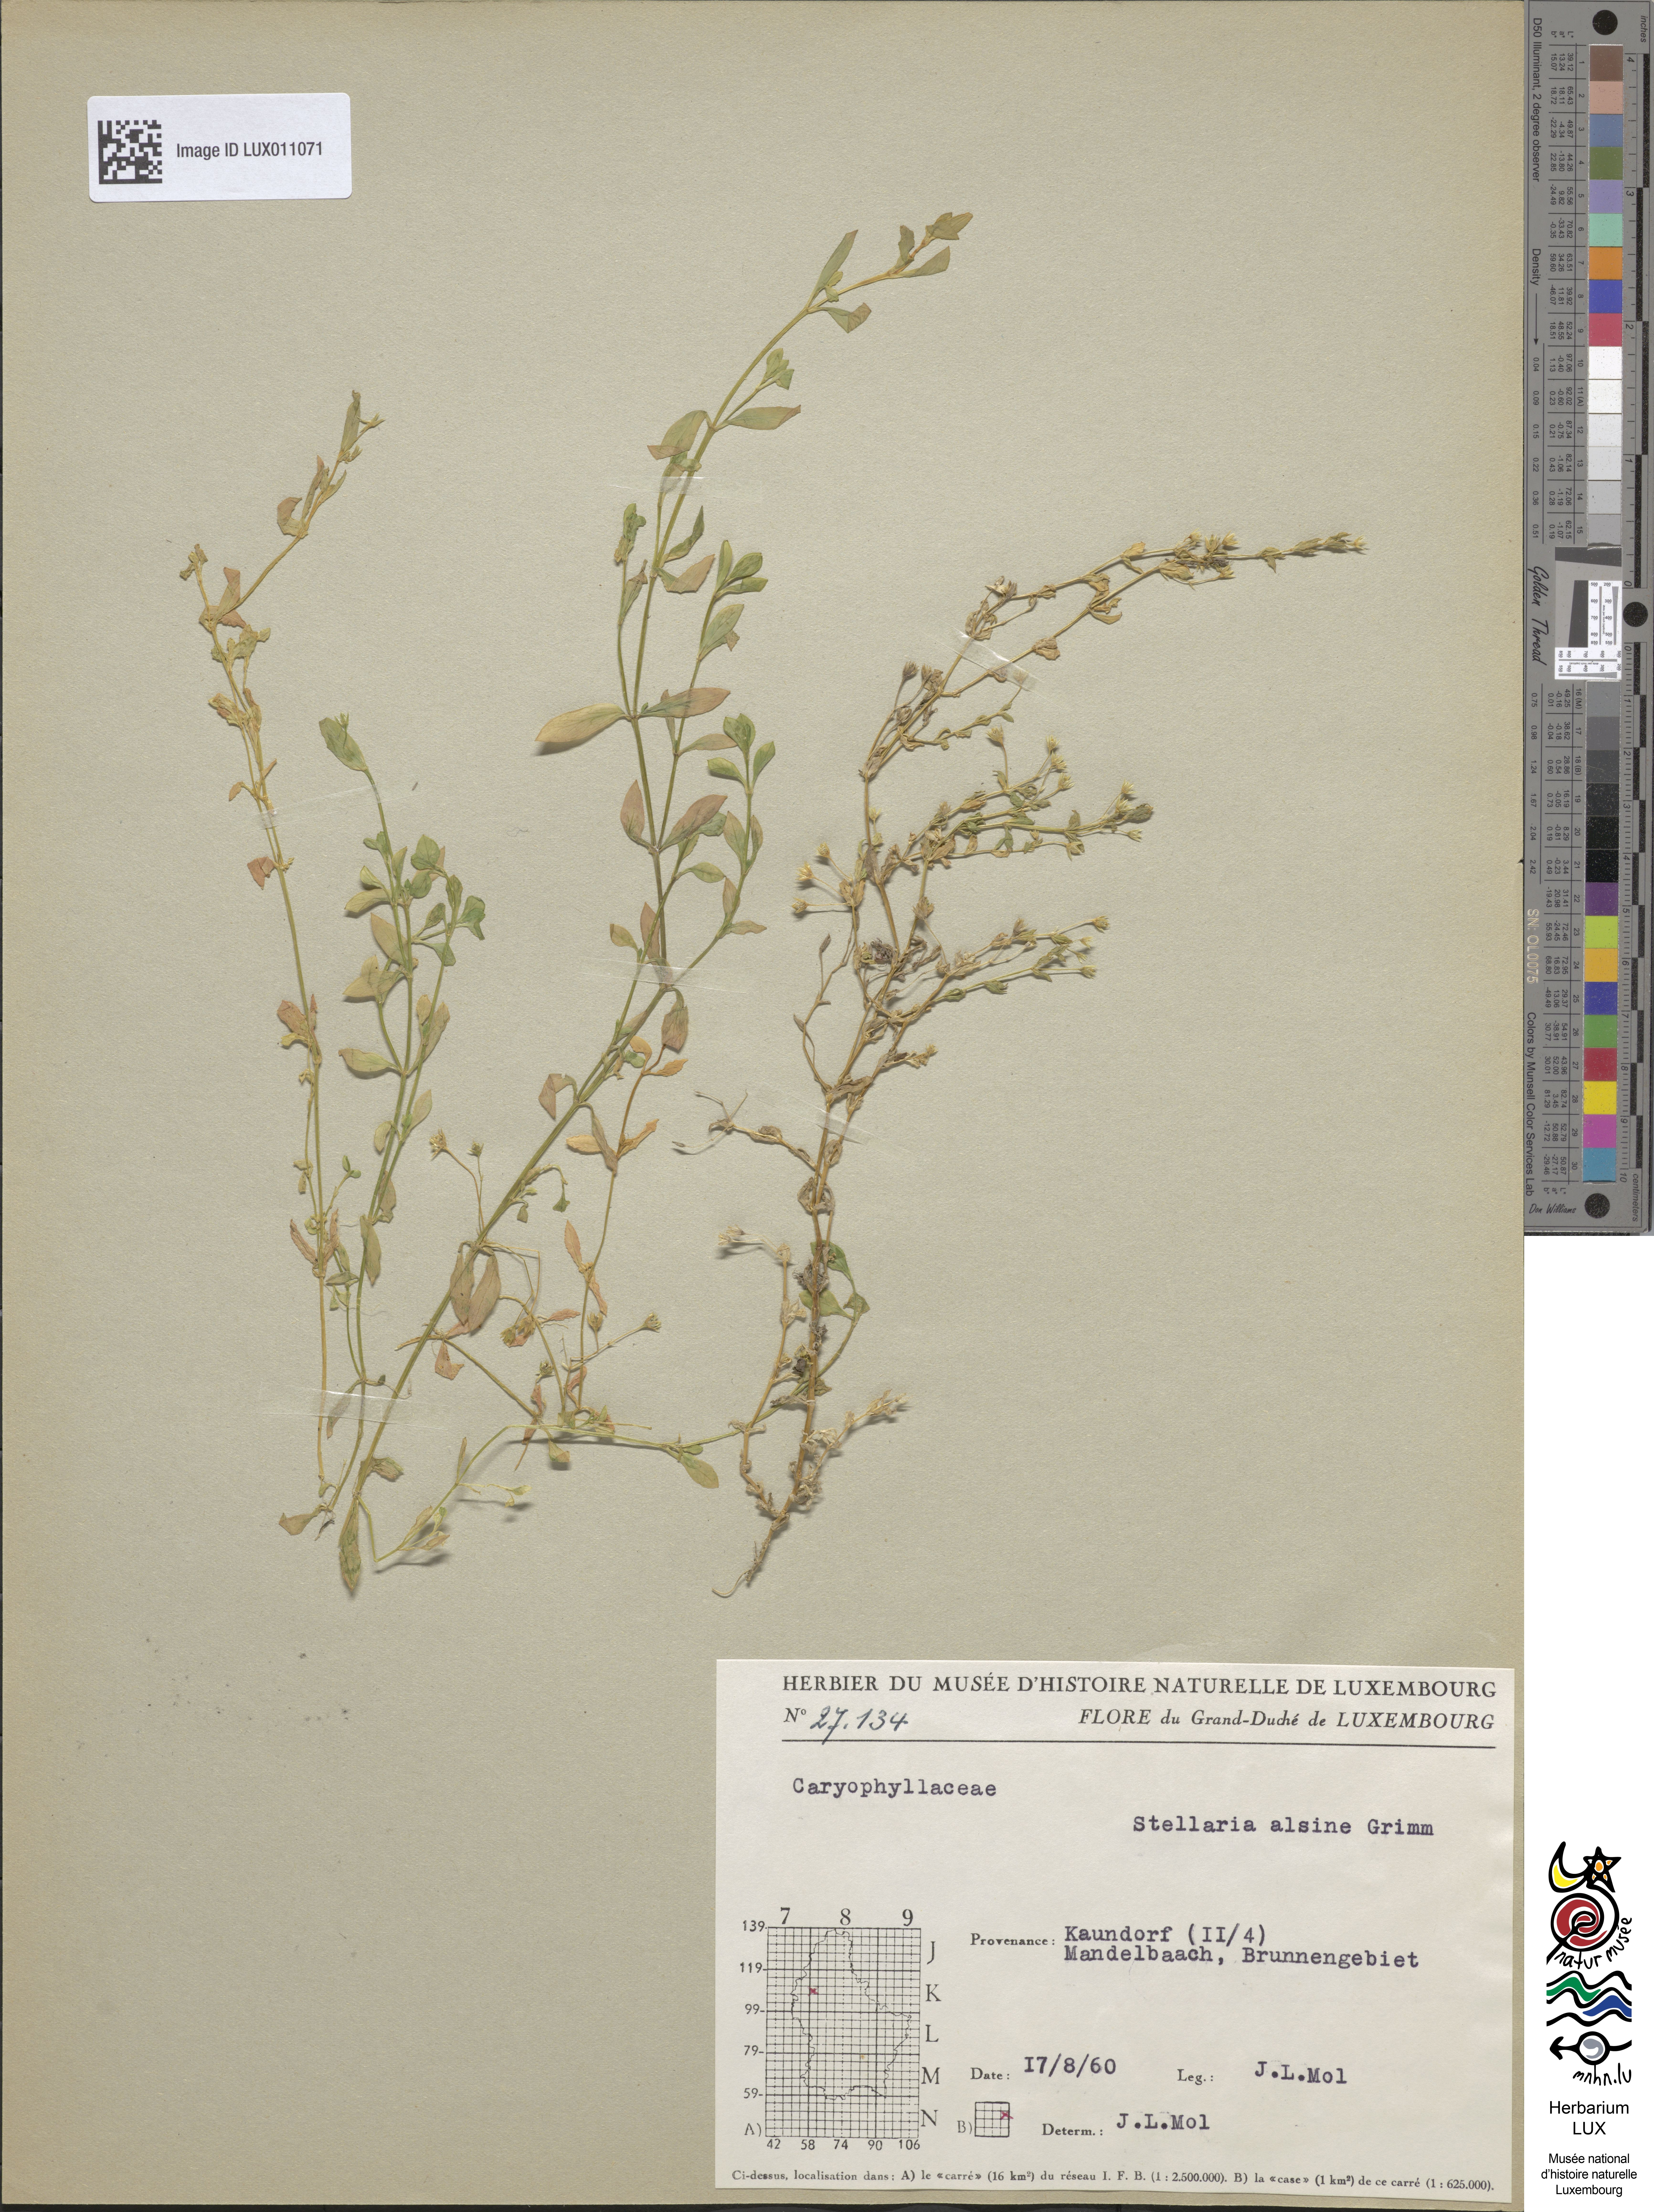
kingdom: Plantae
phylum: Tracheophyta
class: Magnoliopsida
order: Caryophyllales
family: Caryophyllaceae
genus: Stellaria
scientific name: Stellaria alsine
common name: Bog stitchwort
